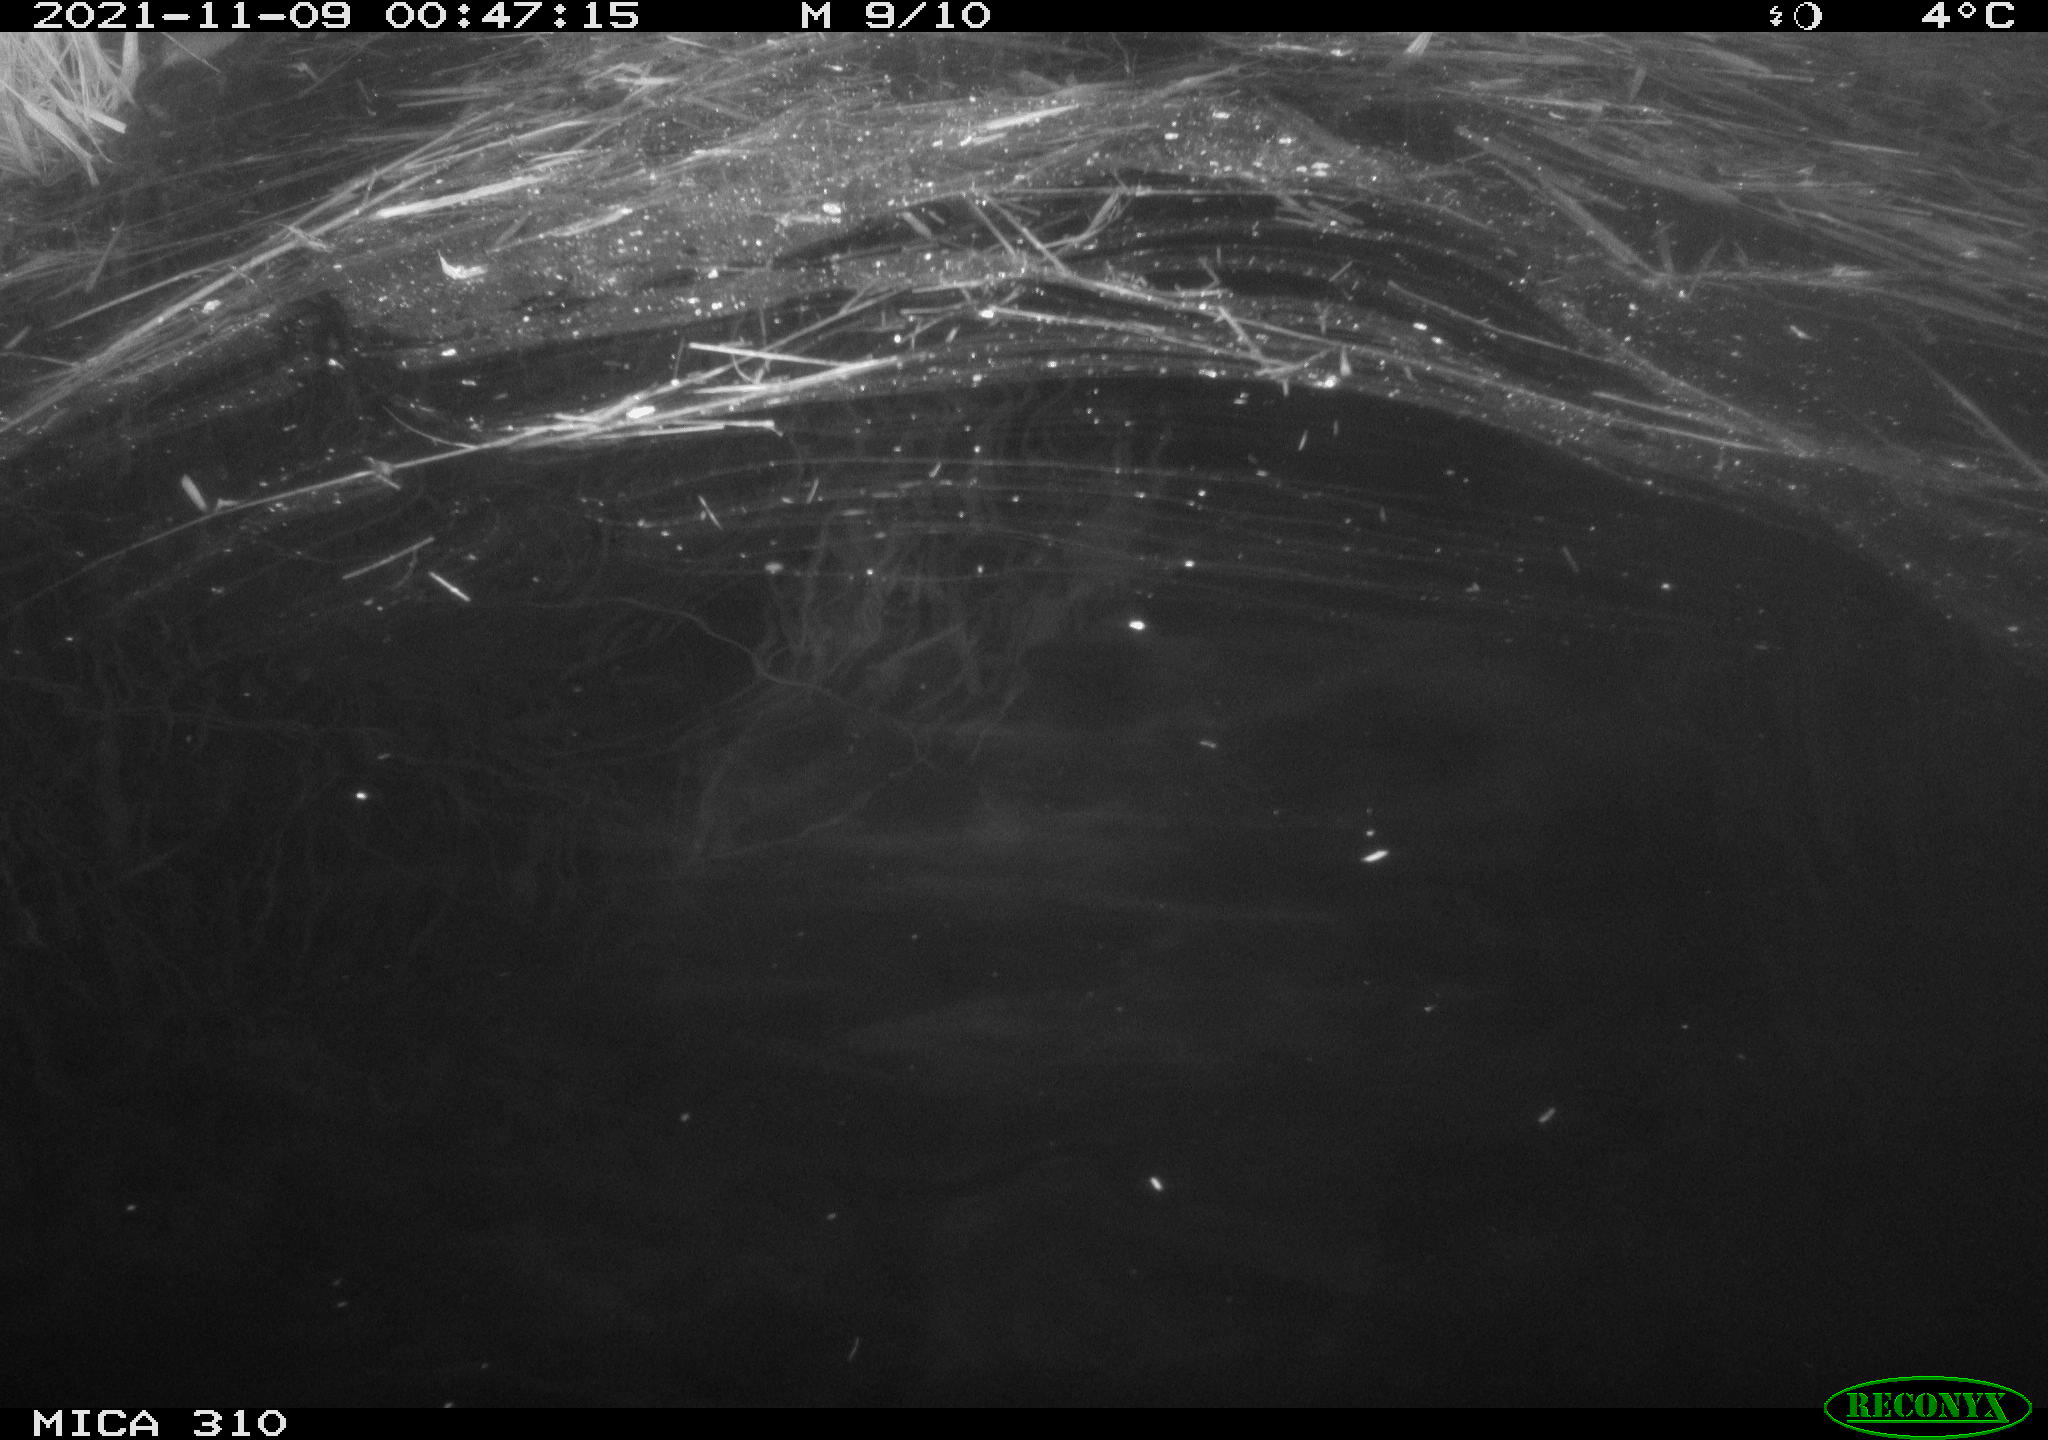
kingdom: Animalia
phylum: Chordata
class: Mammalia
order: Rodentia
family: Muridae
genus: Rattus
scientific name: Rattus norvegicus
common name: Brown rat
